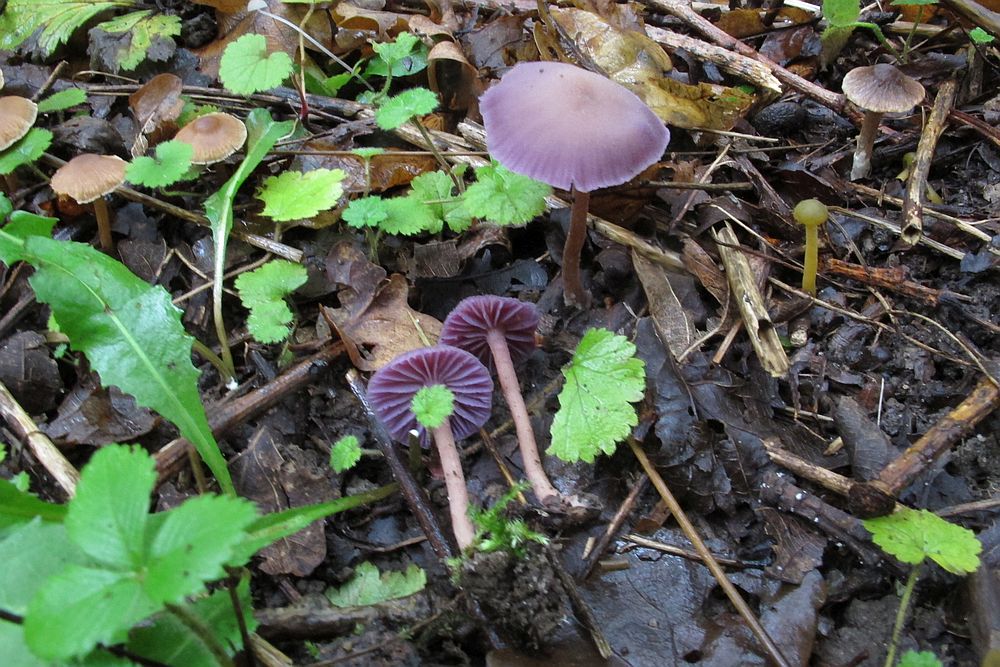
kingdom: Fungi
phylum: Basidiomycota
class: Agaricomycetes
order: Agaricales
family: Hydnangiaceae
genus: Laccaria
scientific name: Laccaria amethystina
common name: violet ametysthat
